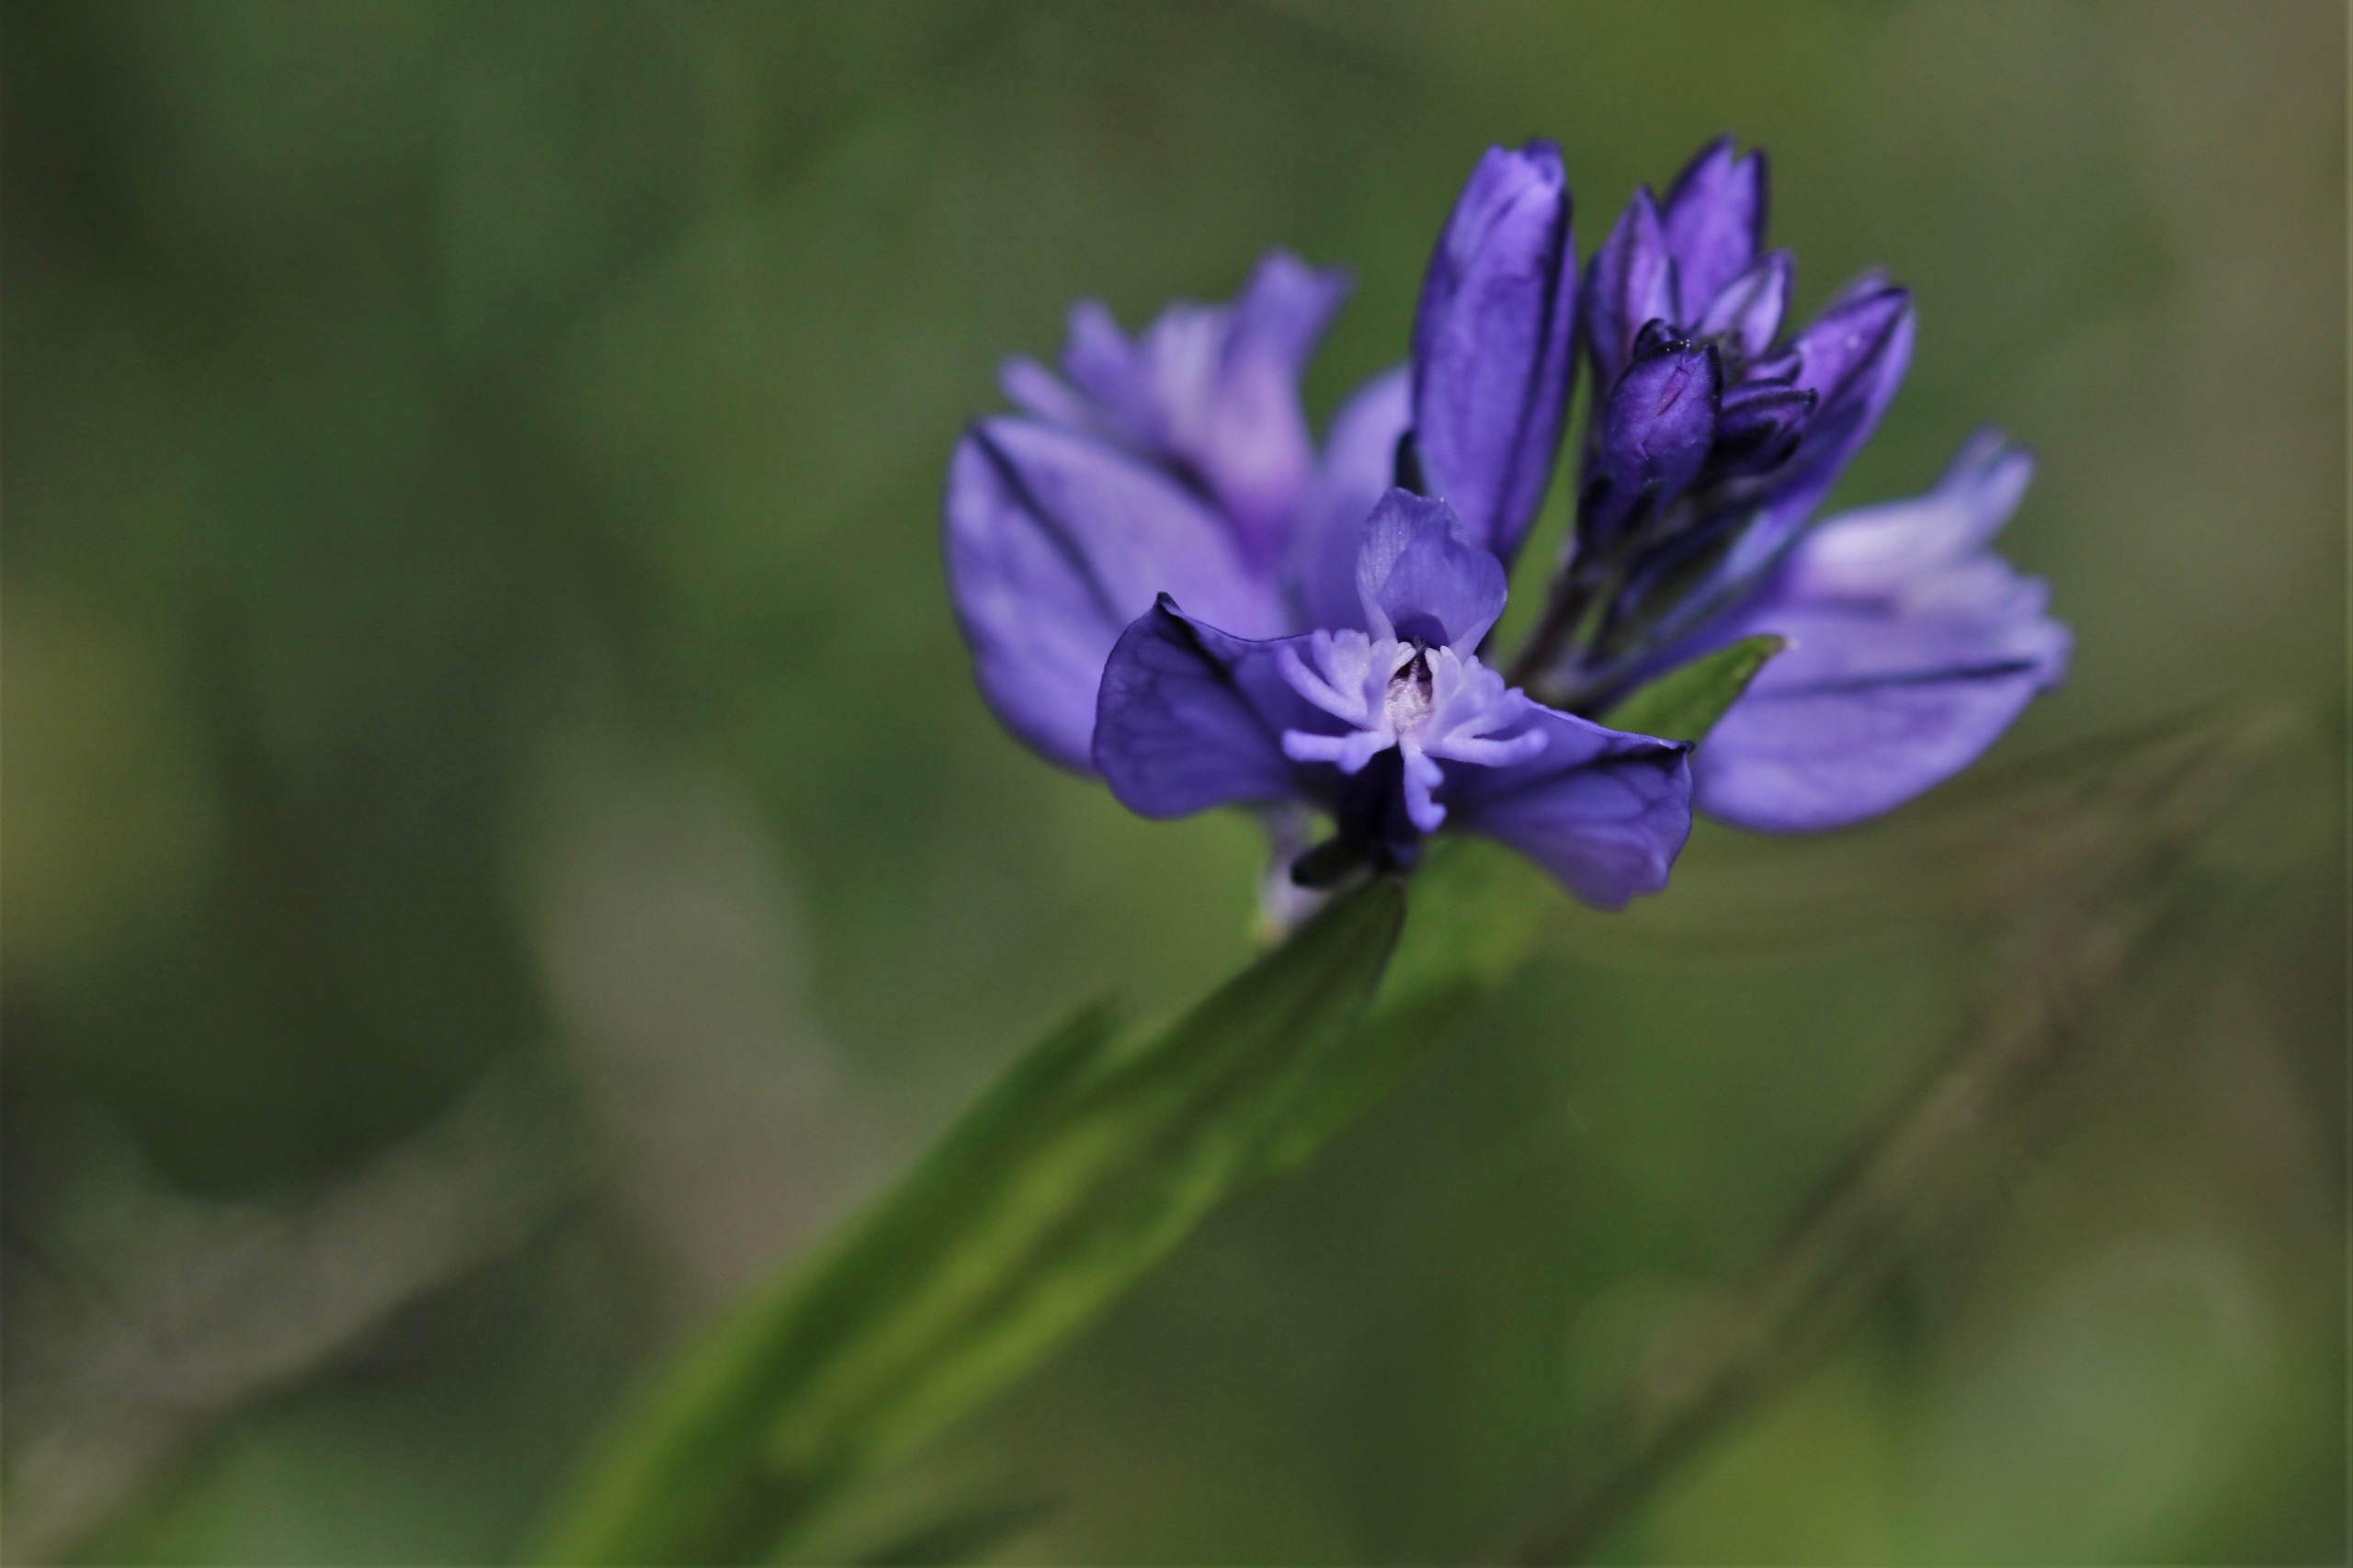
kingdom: Plantae
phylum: Tracheophyta
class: Magnoliopsida
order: Fabales
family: Polygalaceae
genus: Polygala
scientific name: Polygala vulgaris
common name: Almindelig mælkeurt
